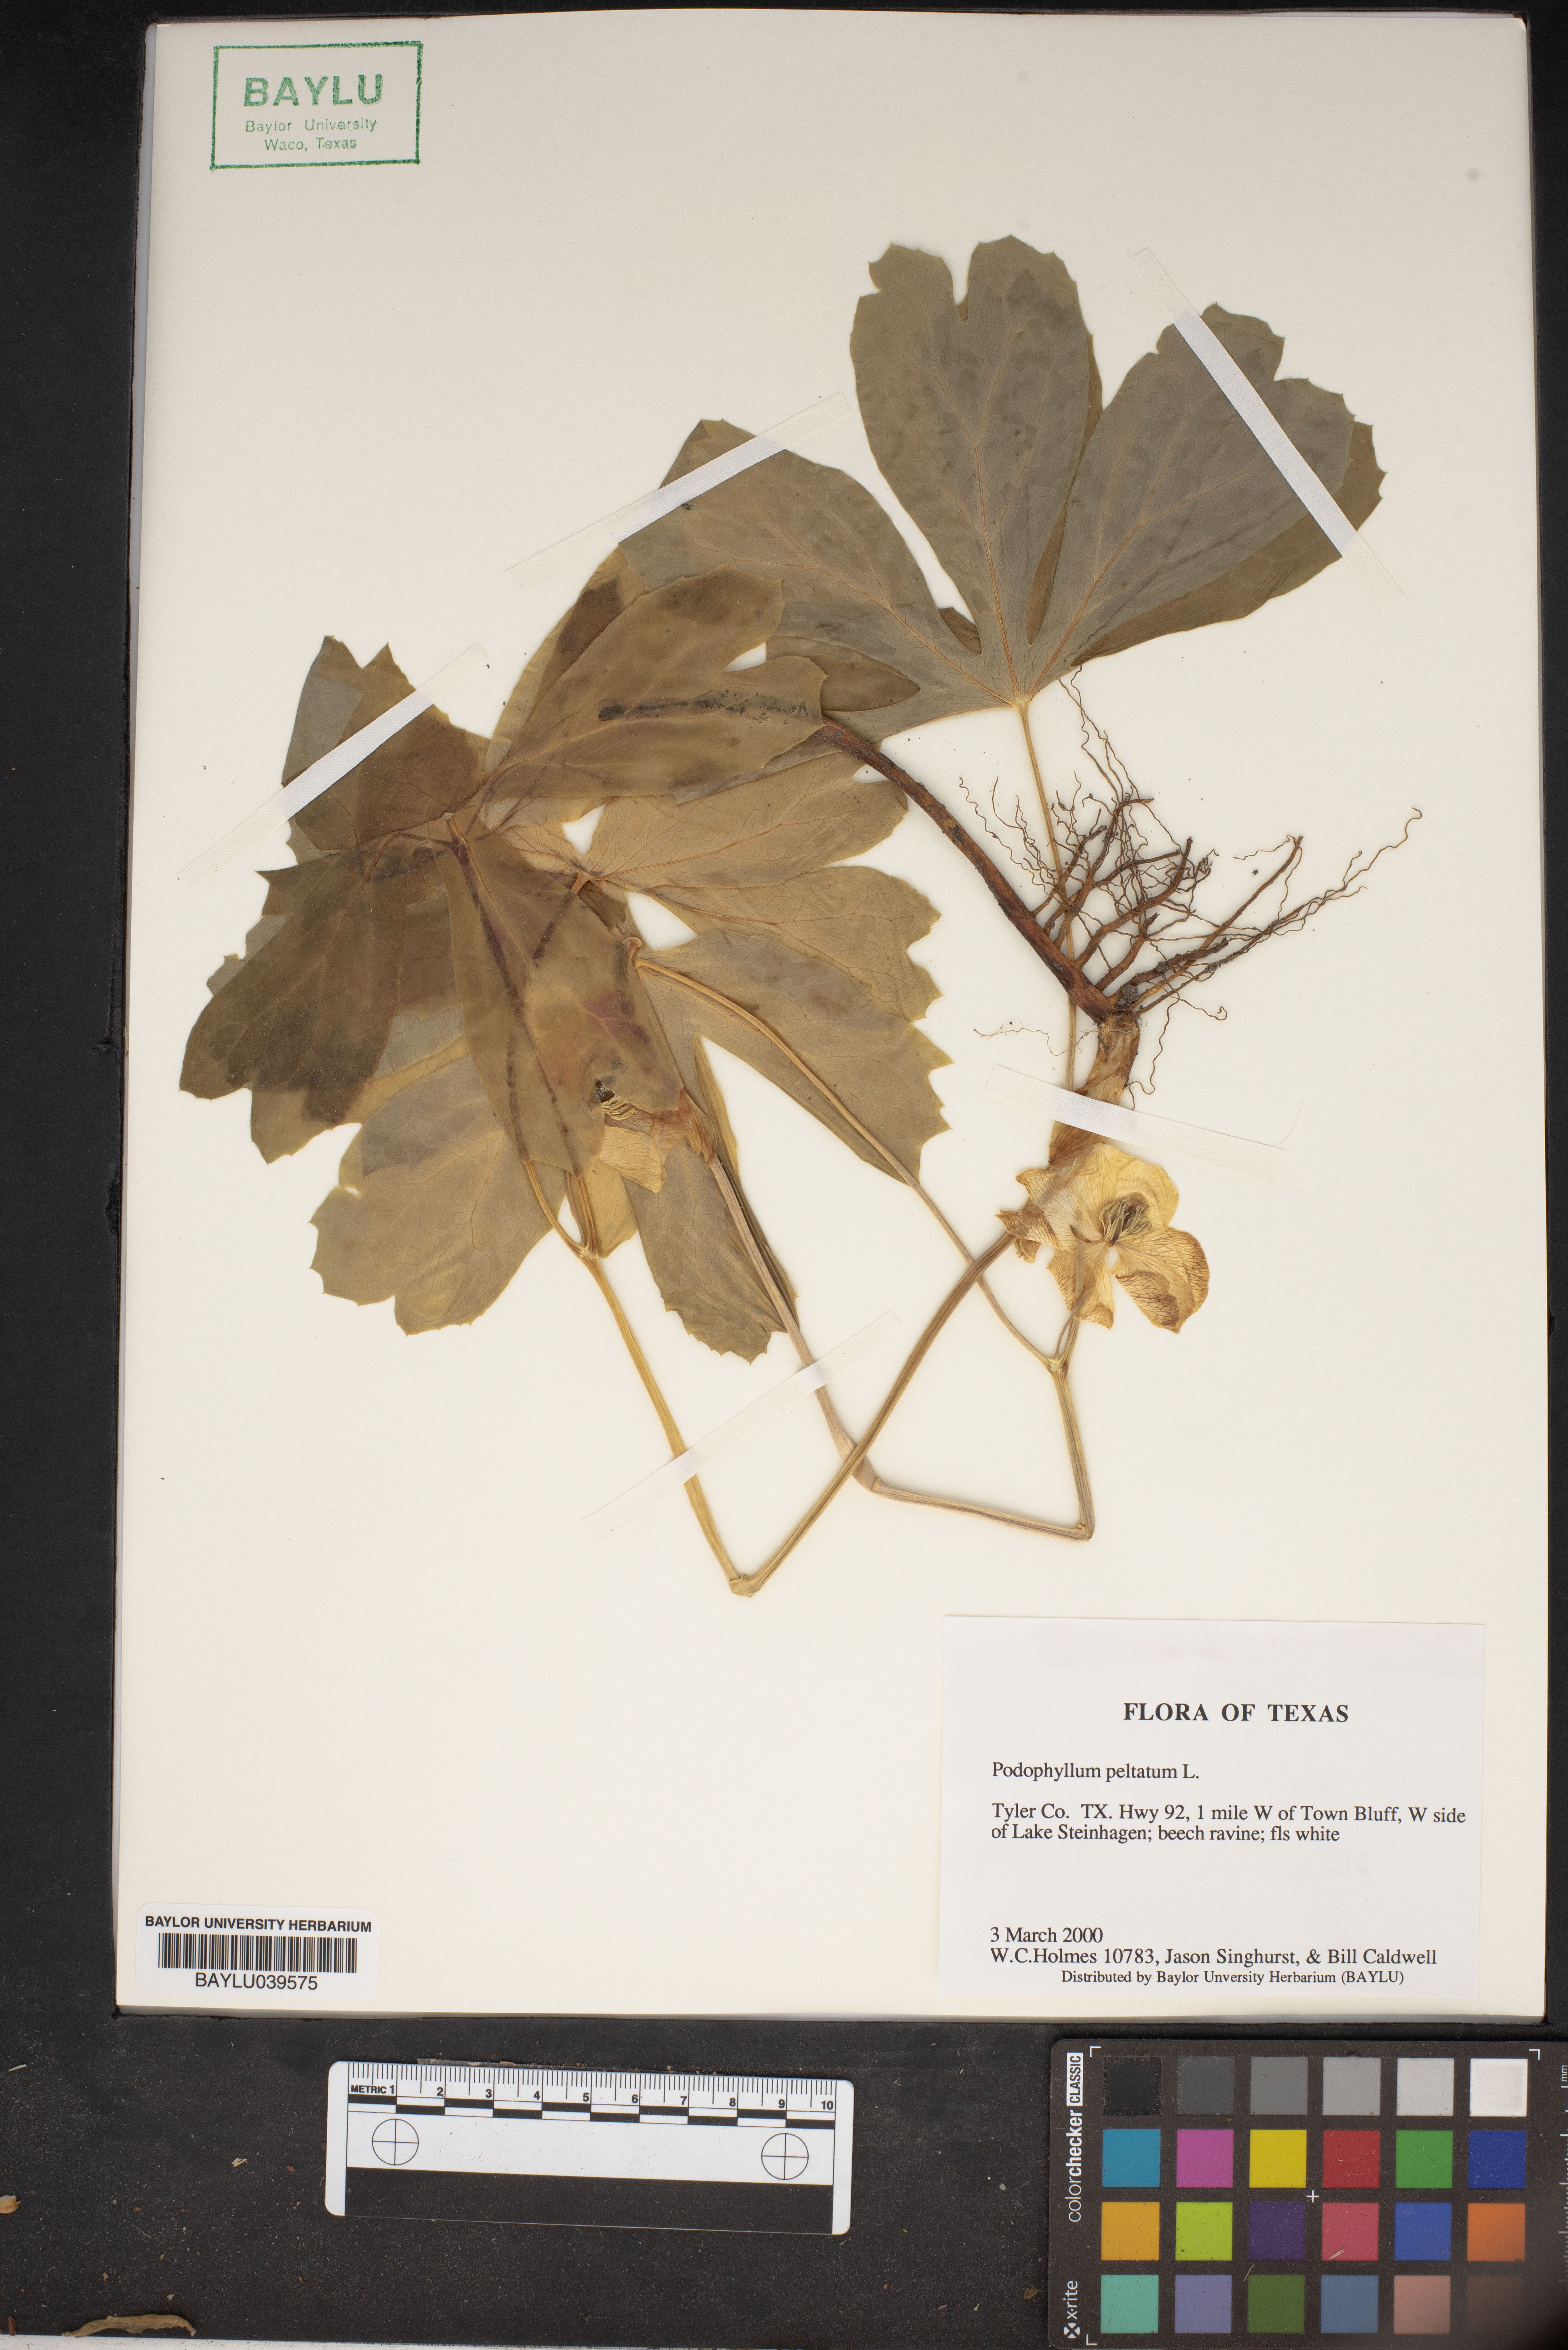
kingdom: Plantae
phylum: Tracheophyta
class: Magnoliopsida
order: Ranunculales
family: Berberidaceae
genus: Podophyllum
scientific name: Podophyllum peltatum
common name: Wild mandrake
